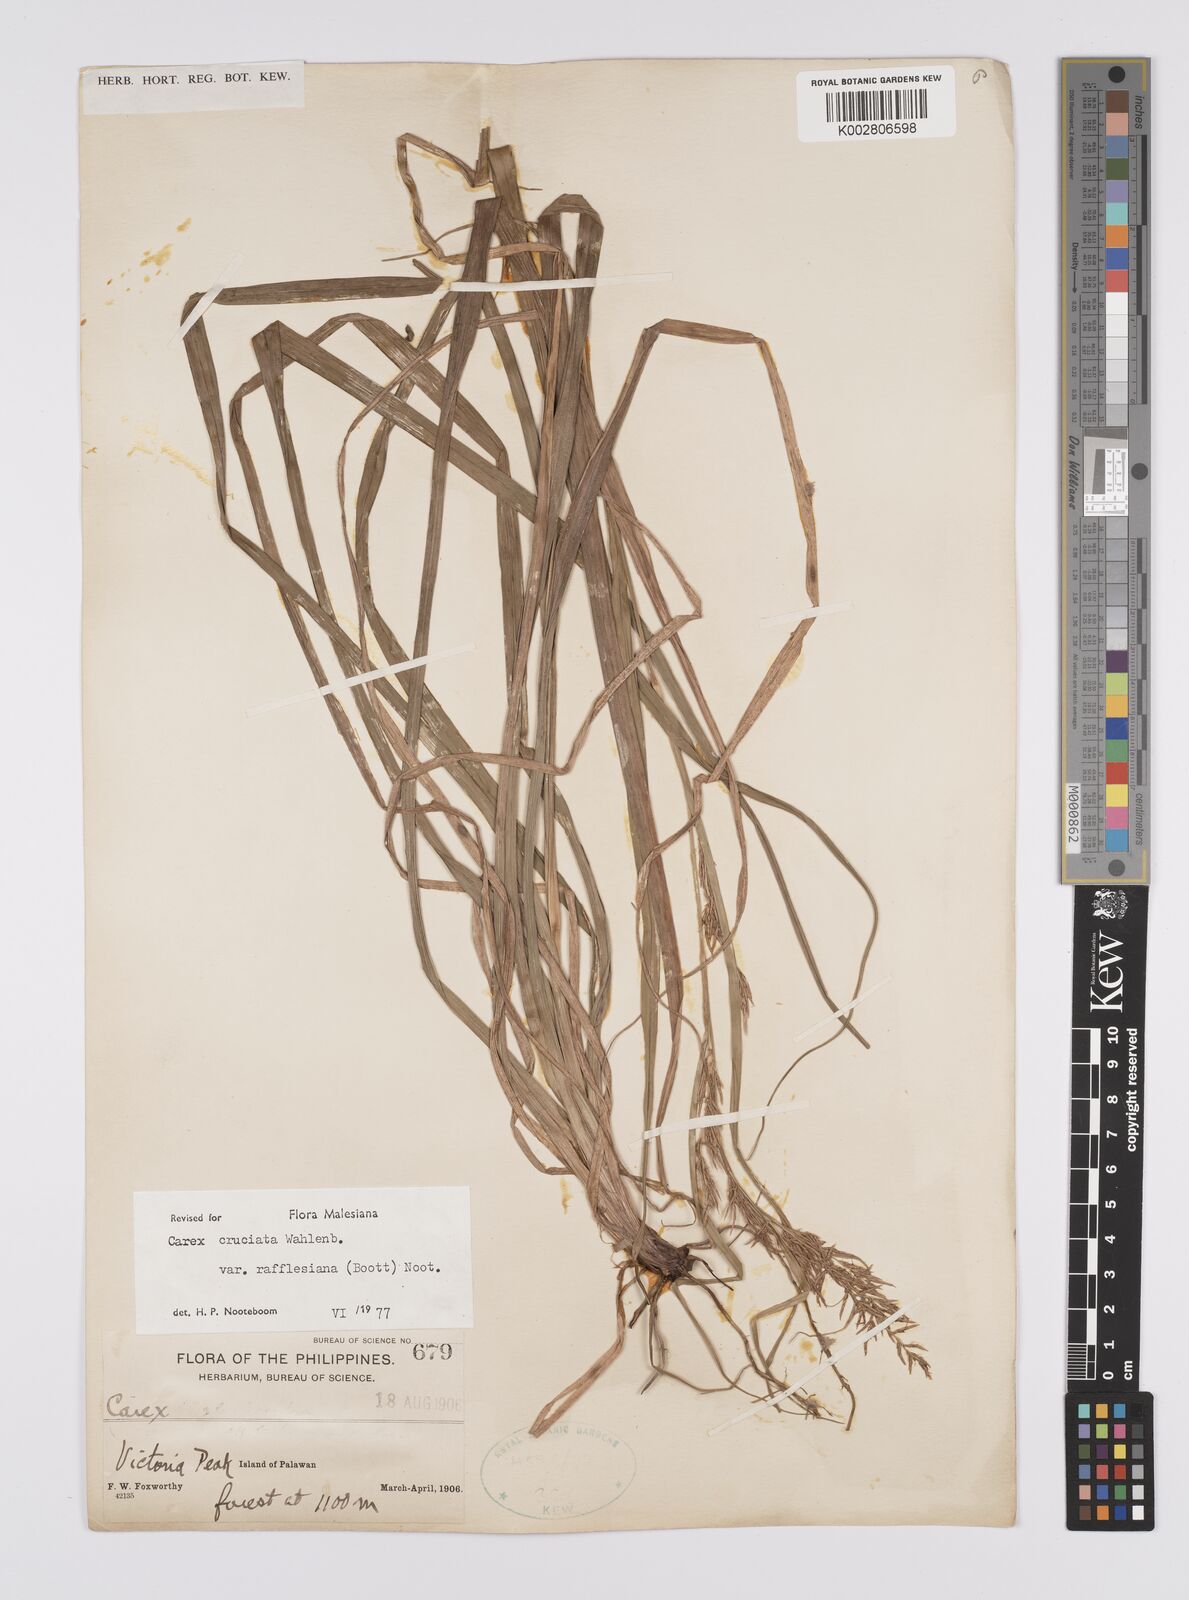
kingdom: Plantae
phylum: Tracheophyta
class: Liliopsida
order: Poales
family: Cyperaceae
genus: Carex
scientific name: Carex rafflesiana
